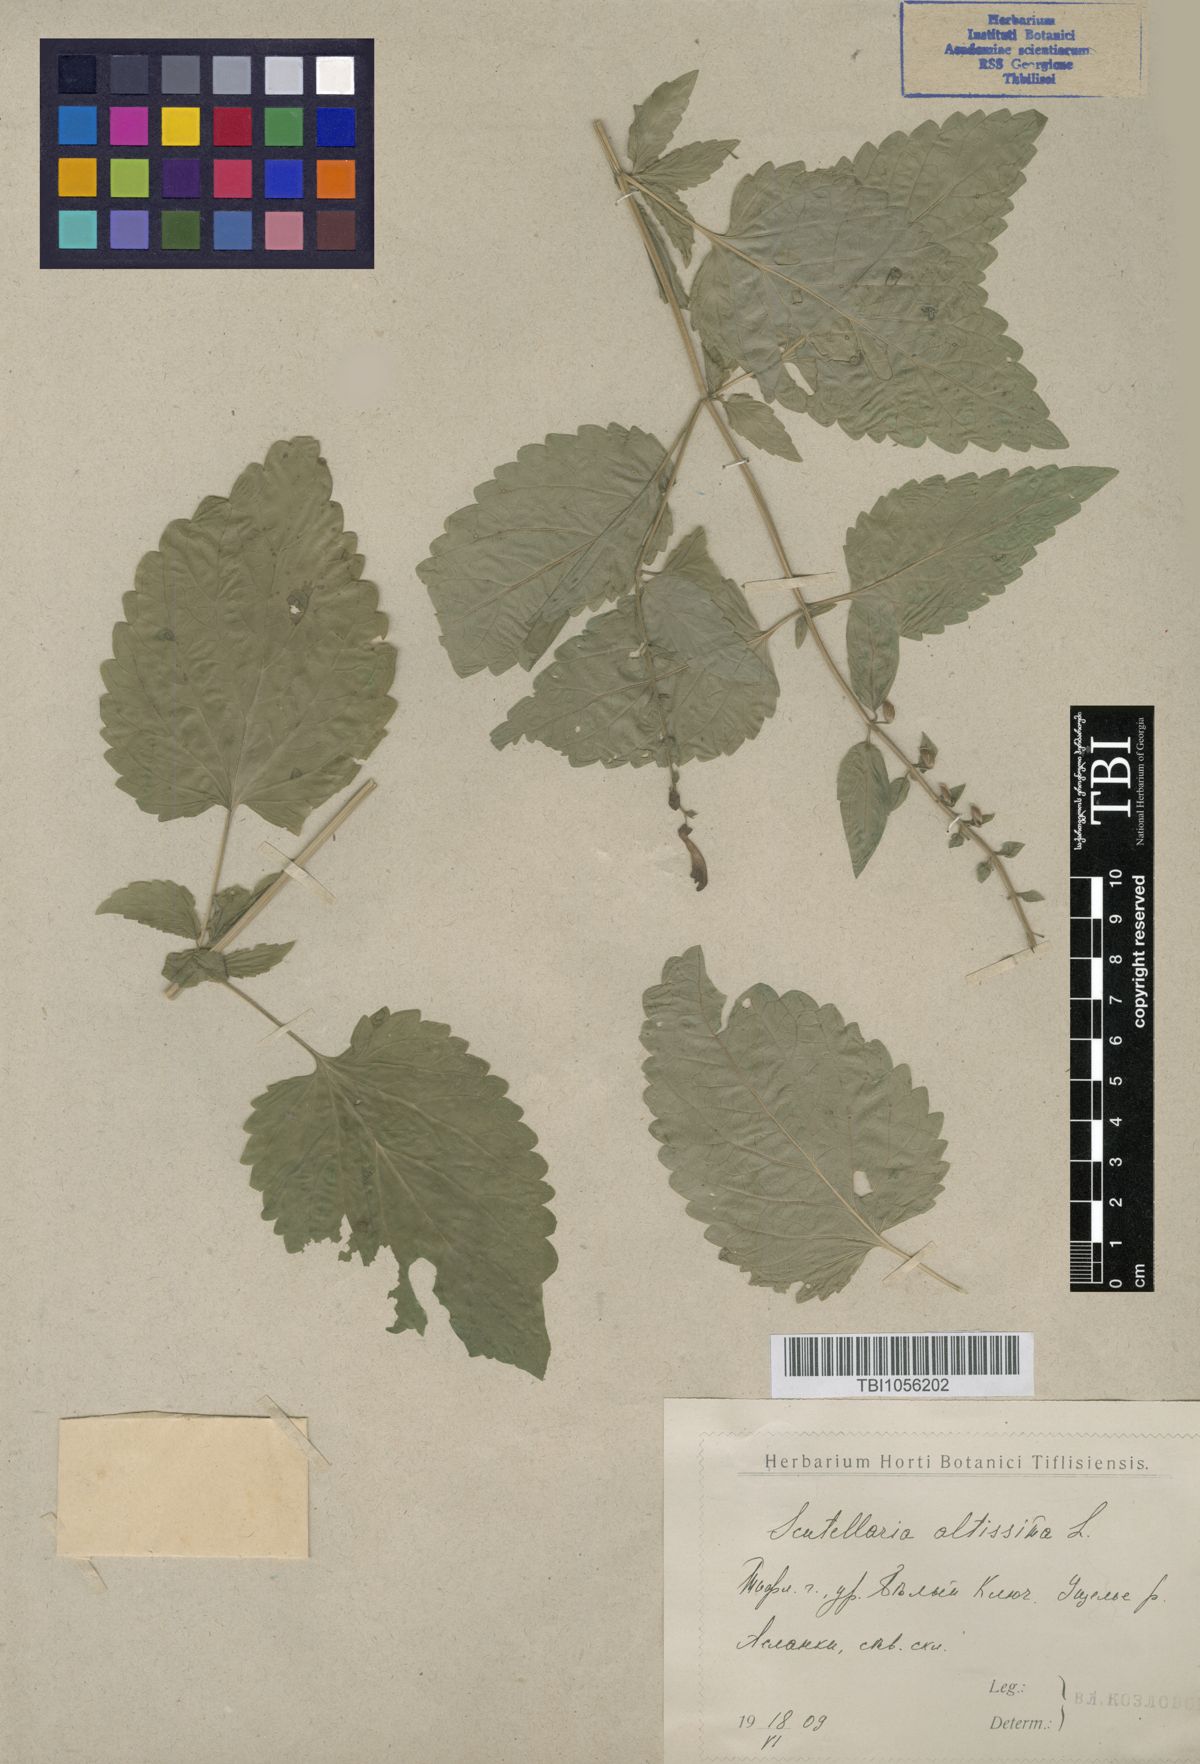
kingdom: Plantae
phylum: Tracheophyta
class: Magnoliopsida
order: Lamiales
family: Lamiaceae
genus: Scutellaria
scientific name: Scutellaria altissima
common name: Somerset skullcap
